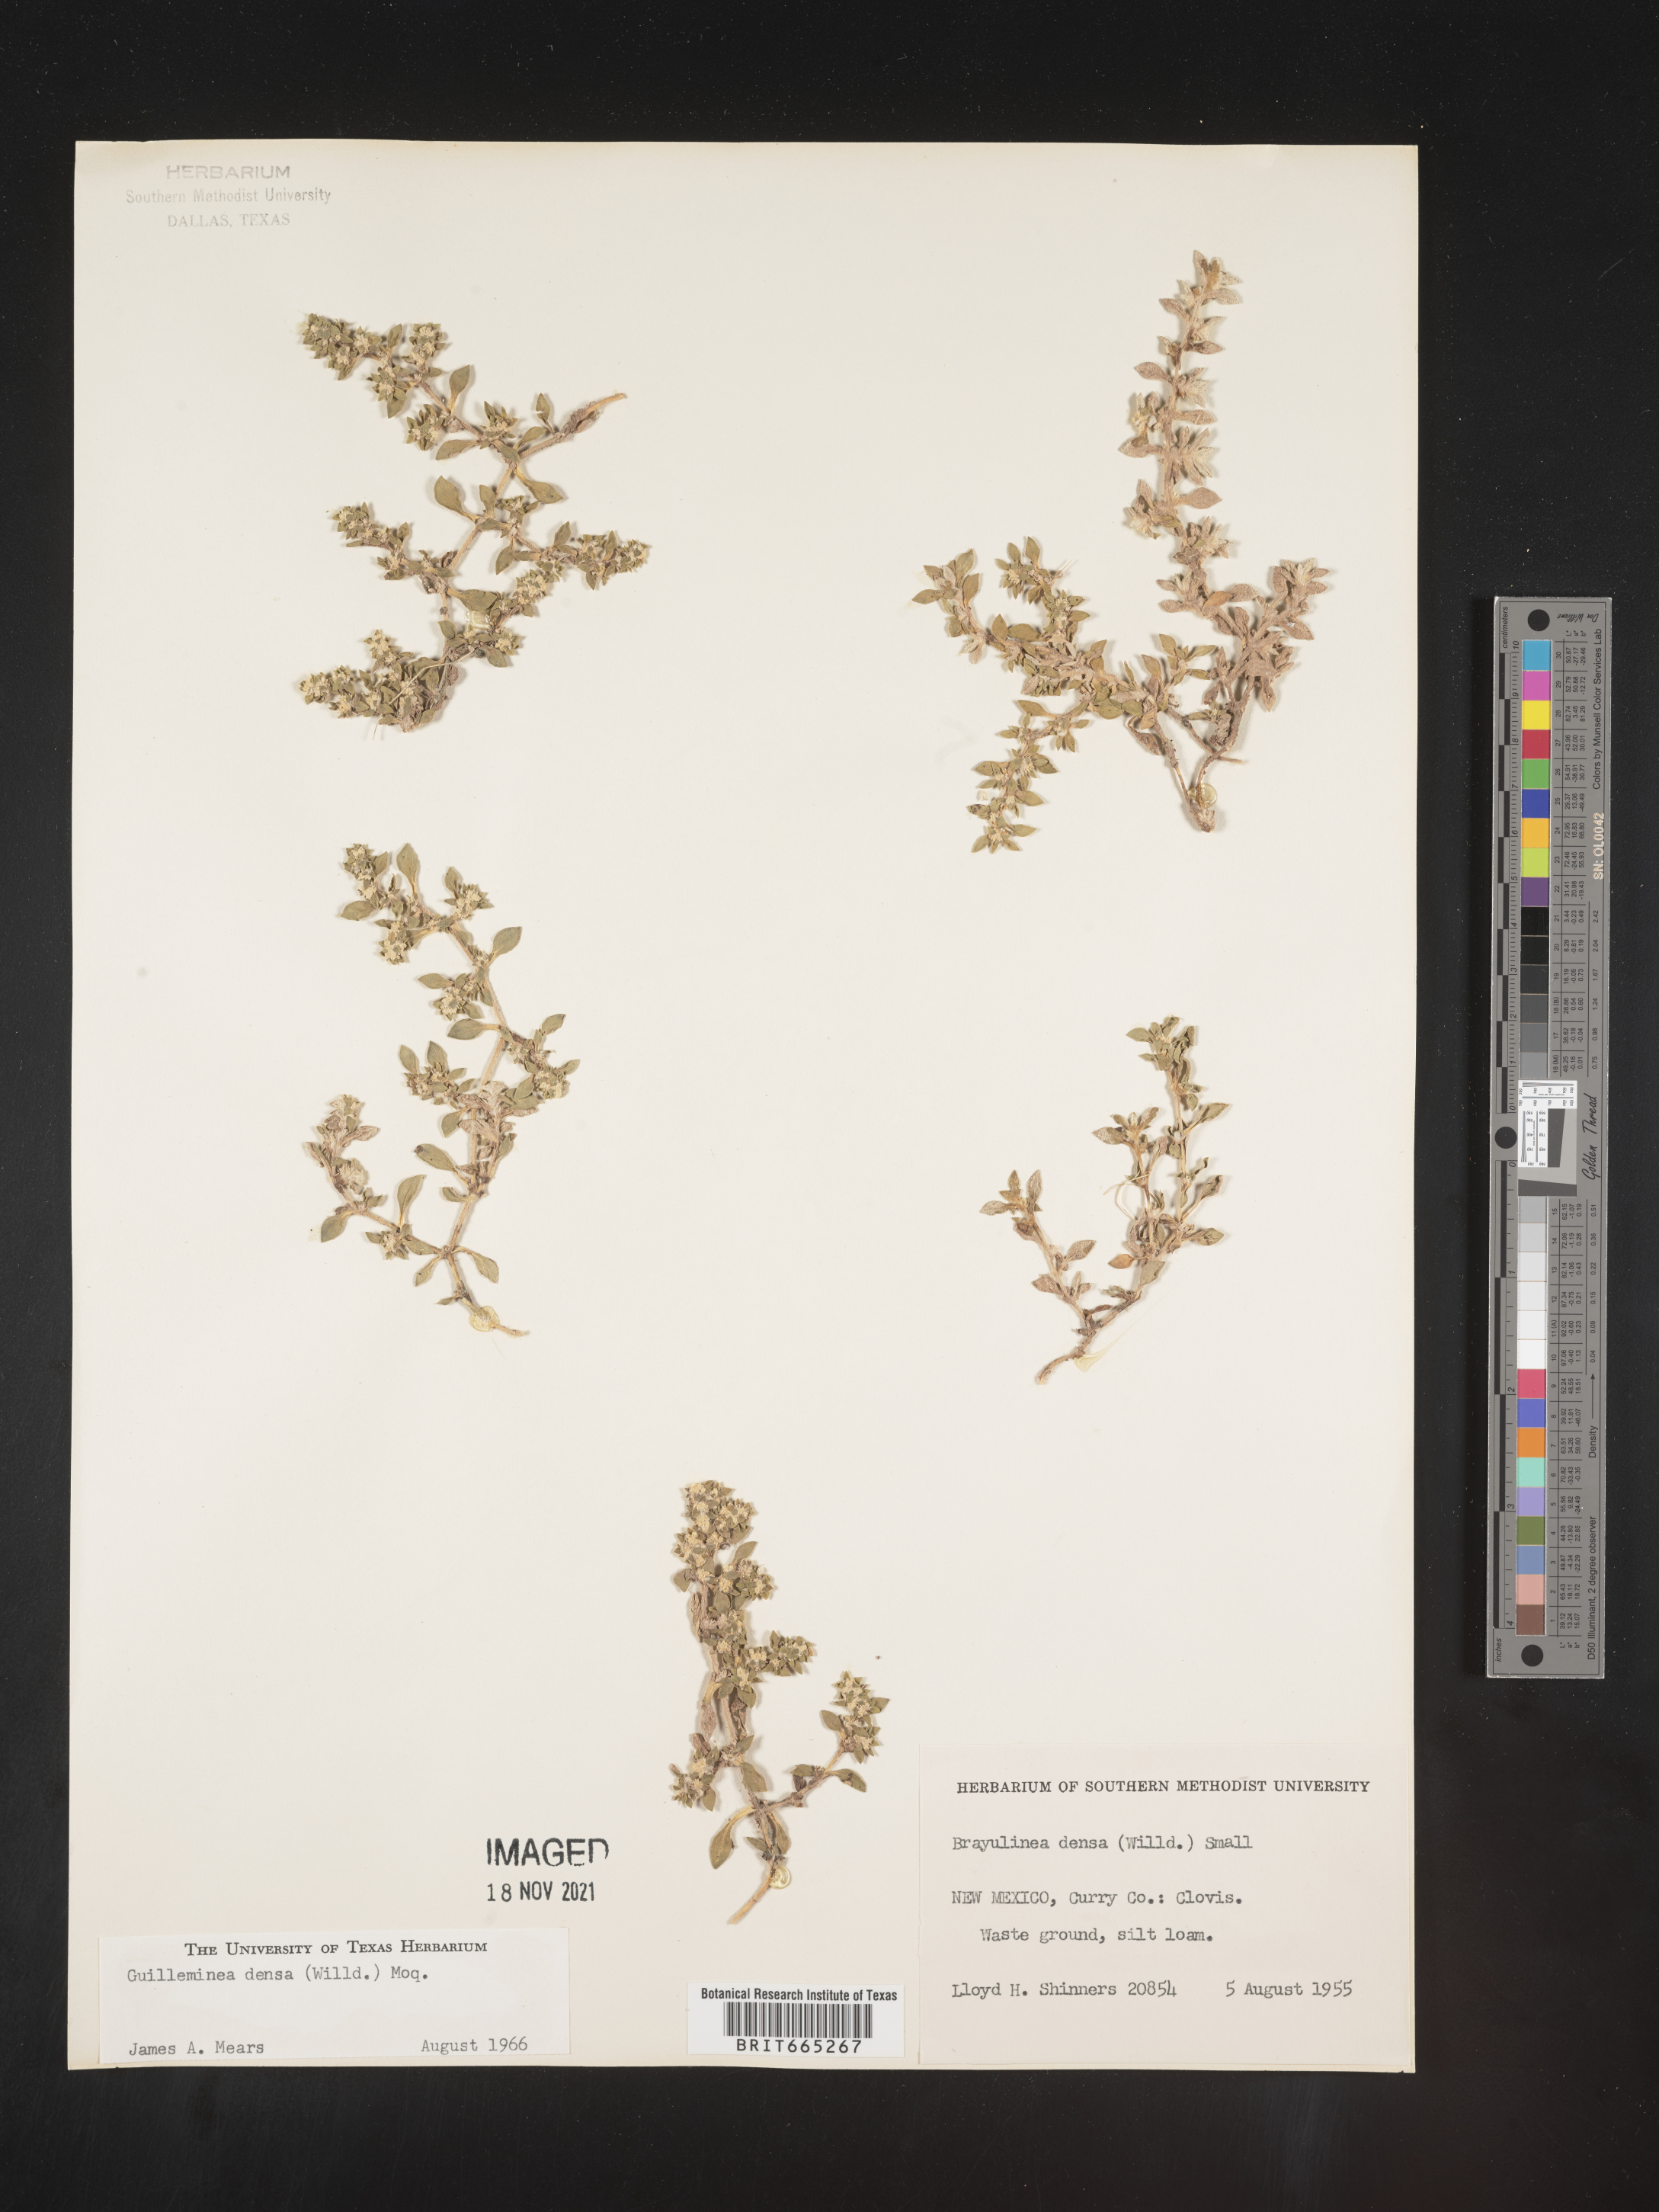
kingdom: Plantae
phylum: Tracheophyta
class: Magnoliopsida
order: Caryophyllales
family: Amaranthaceae
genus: Guilleminea
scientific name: Guilleminea densa
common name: Small matweed
